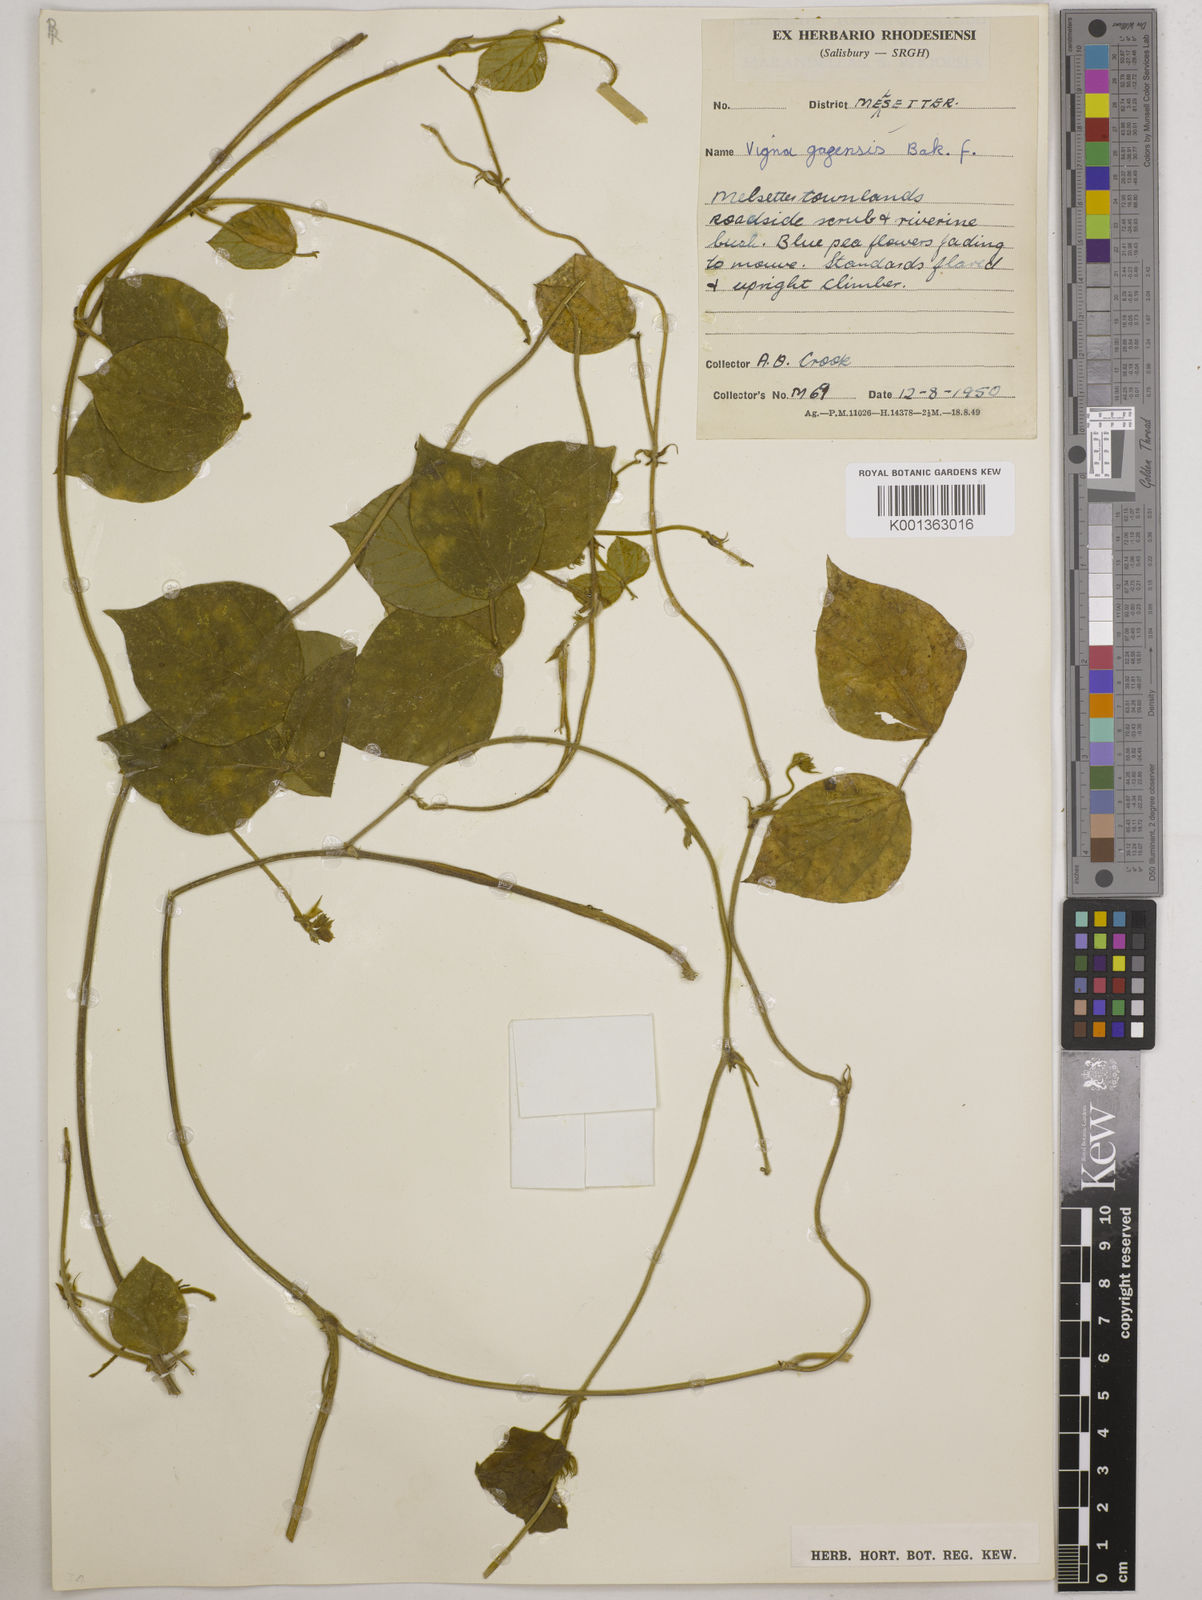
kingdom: Plantae
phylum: Tracheophyta
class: Magnoliopsida
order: Fabales
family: Fabaceae
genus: Vigna
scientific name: Vigna gazensis
